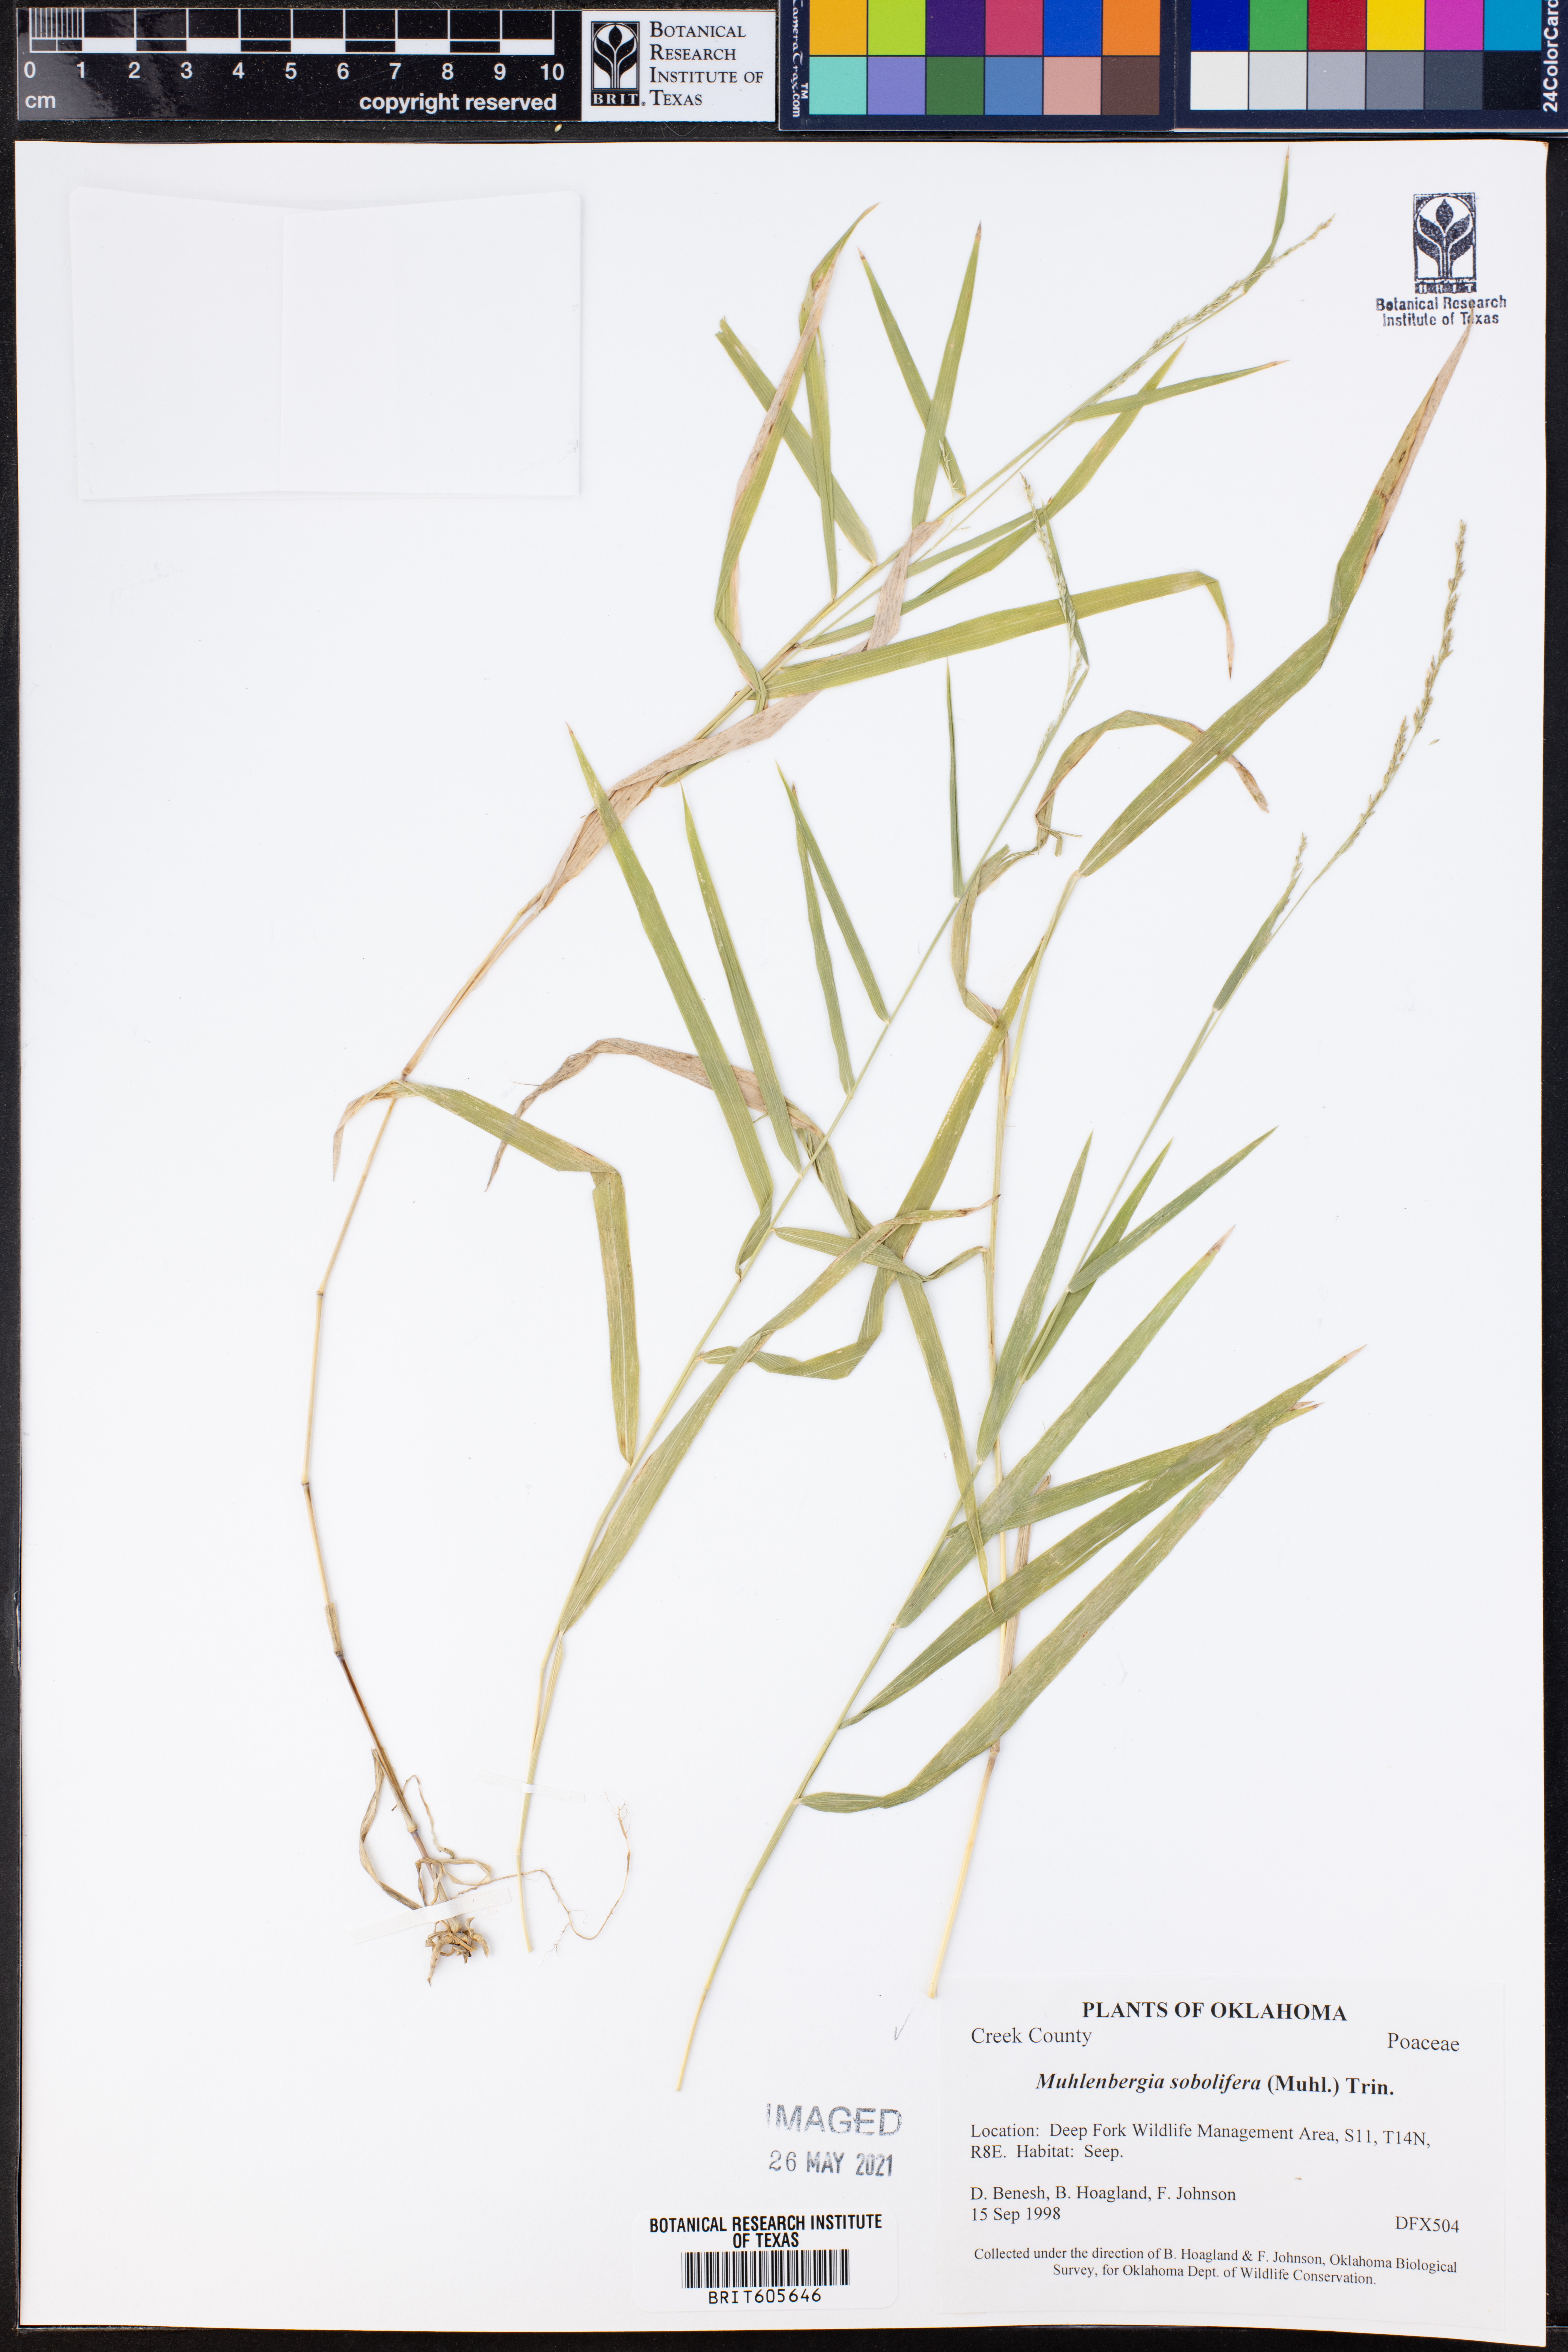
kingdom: Plantae
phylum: Tracheophyta
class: Liliopsida
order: Poales
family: Poaceae
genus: Muhlenbergia
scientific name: Muhlenbergia sobolifera
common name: Creeping muhly
